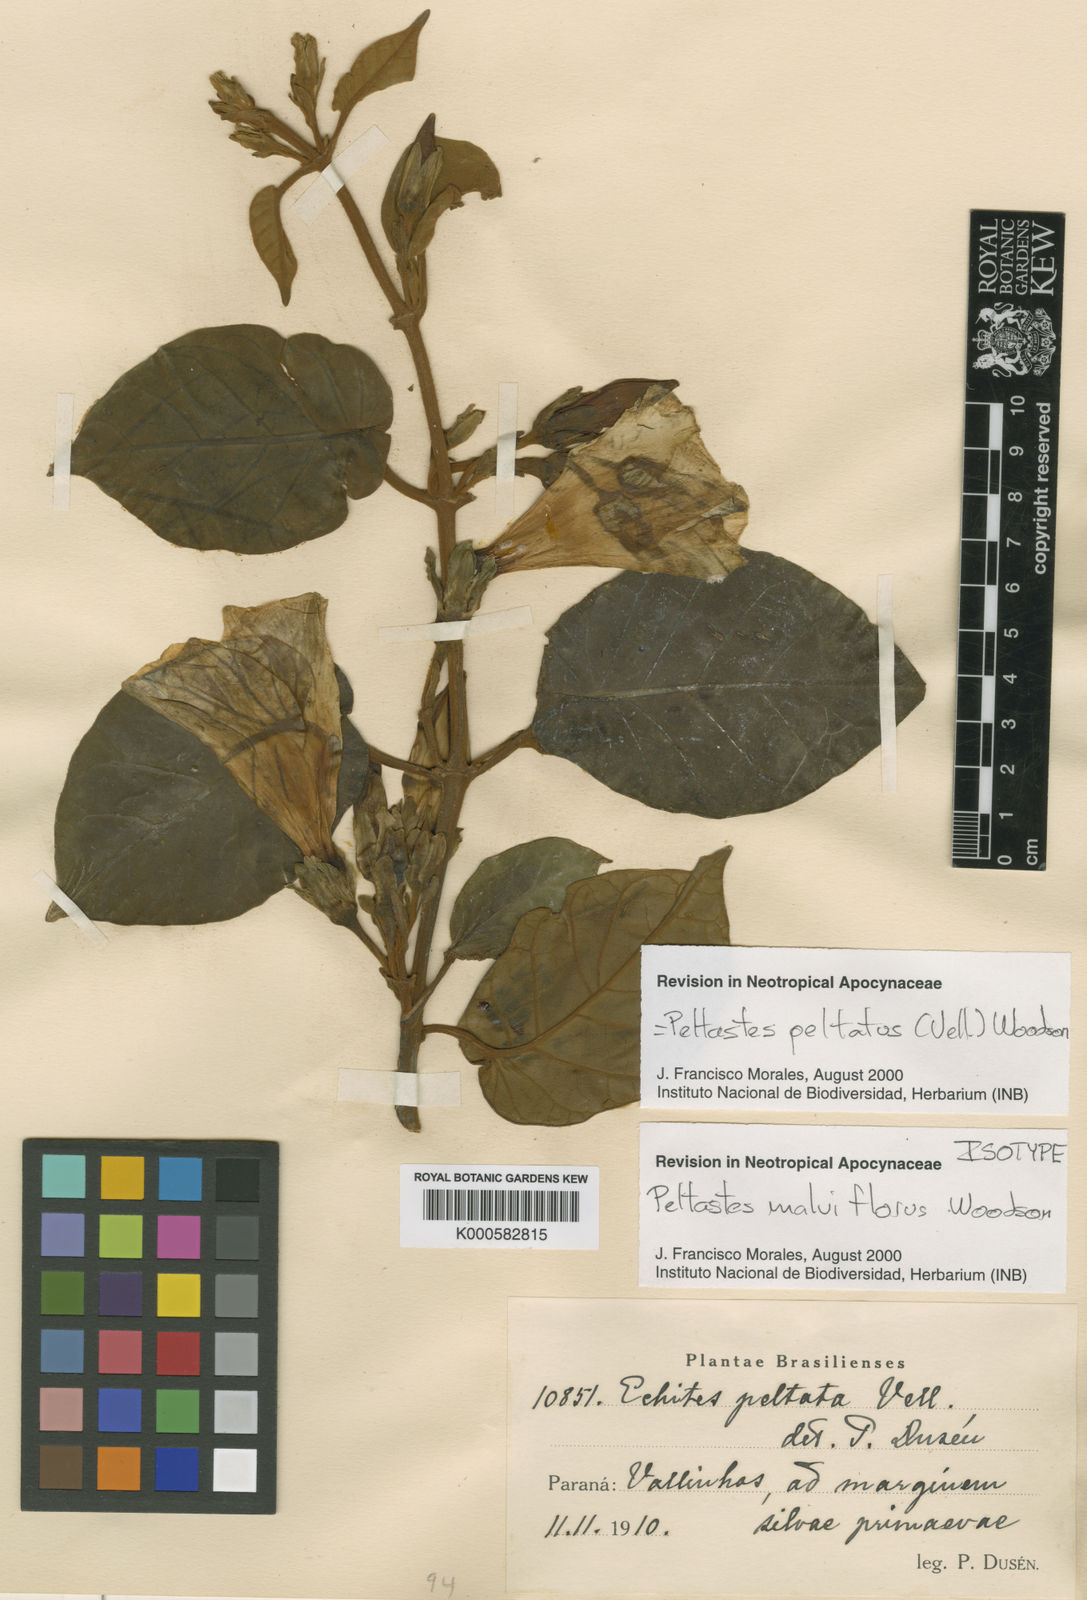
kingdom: Plantae
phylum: Tracheophyta
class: Magnoliopsida
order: Gentianales
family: Apocynaceae
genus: Macropharynx
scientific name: Macropharynx peltata
